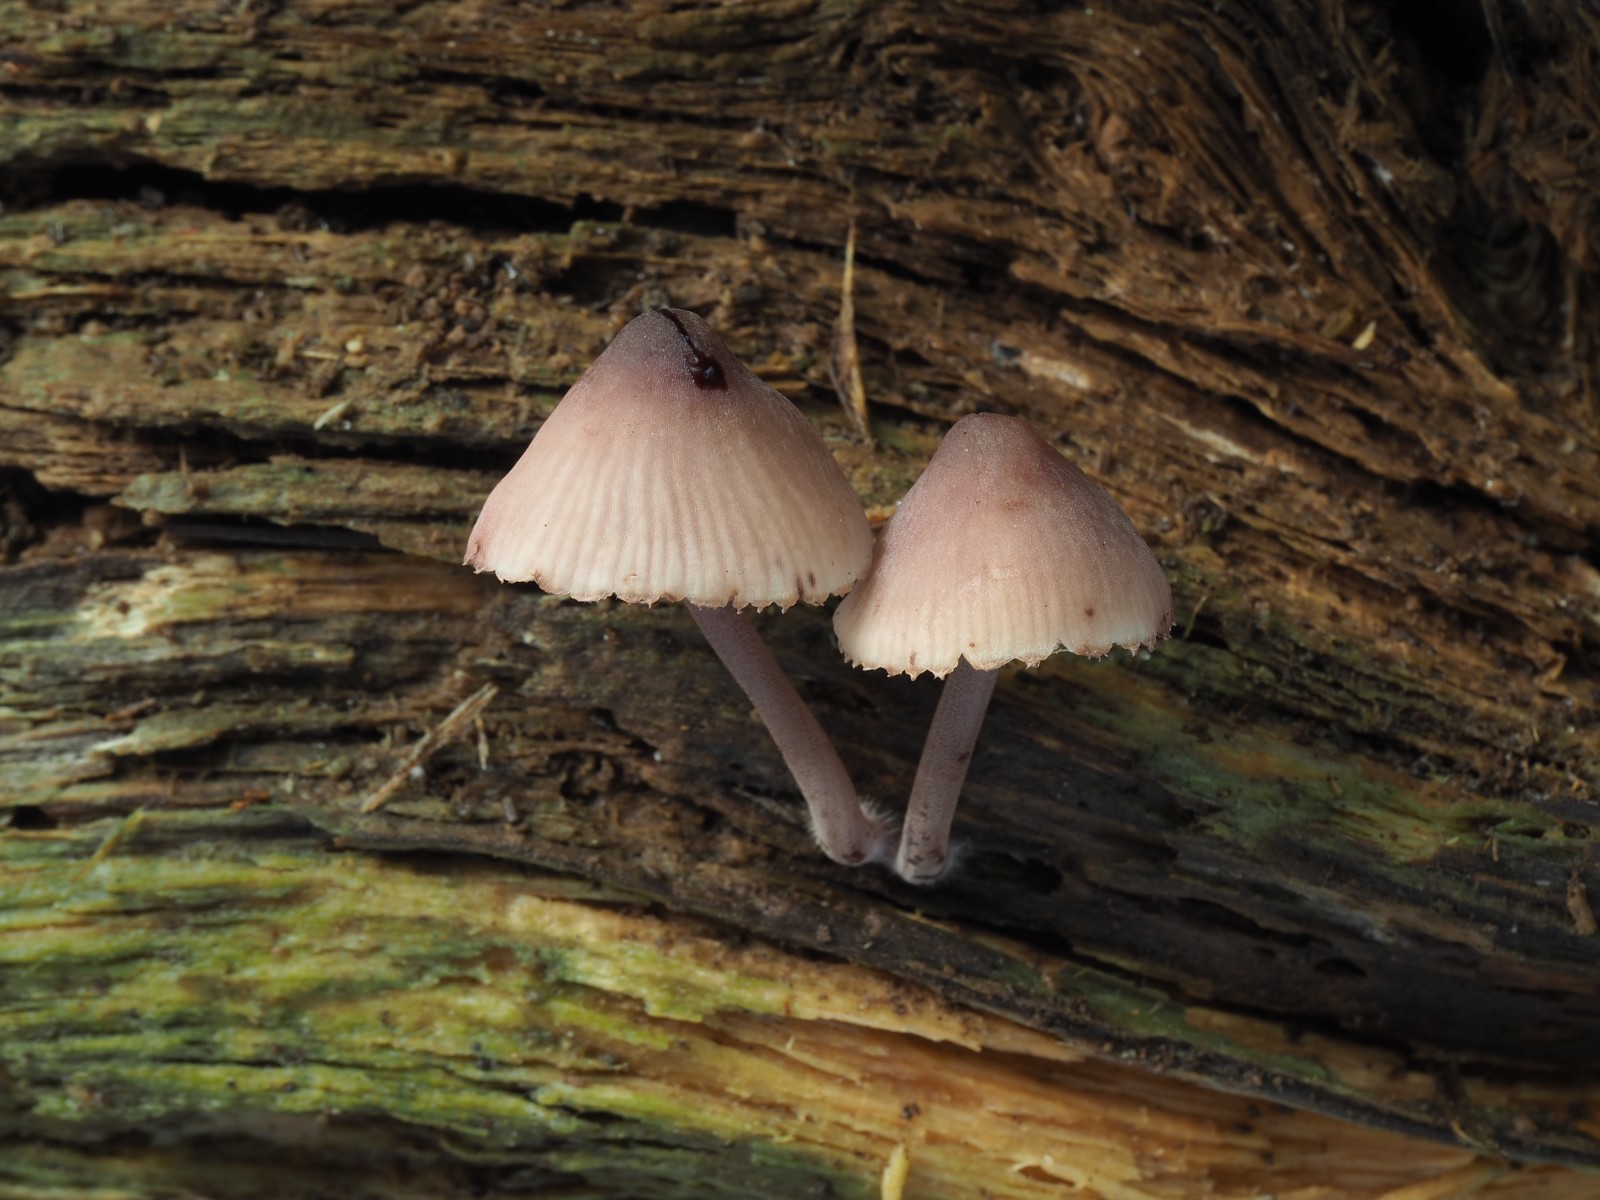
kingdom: Fungi
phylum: Basidiomycota
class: Agaricomycetes
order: Agaricales
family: Mycenaceae
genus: Mycena
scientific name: Mycena haematopus
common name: blødende huesvamp
